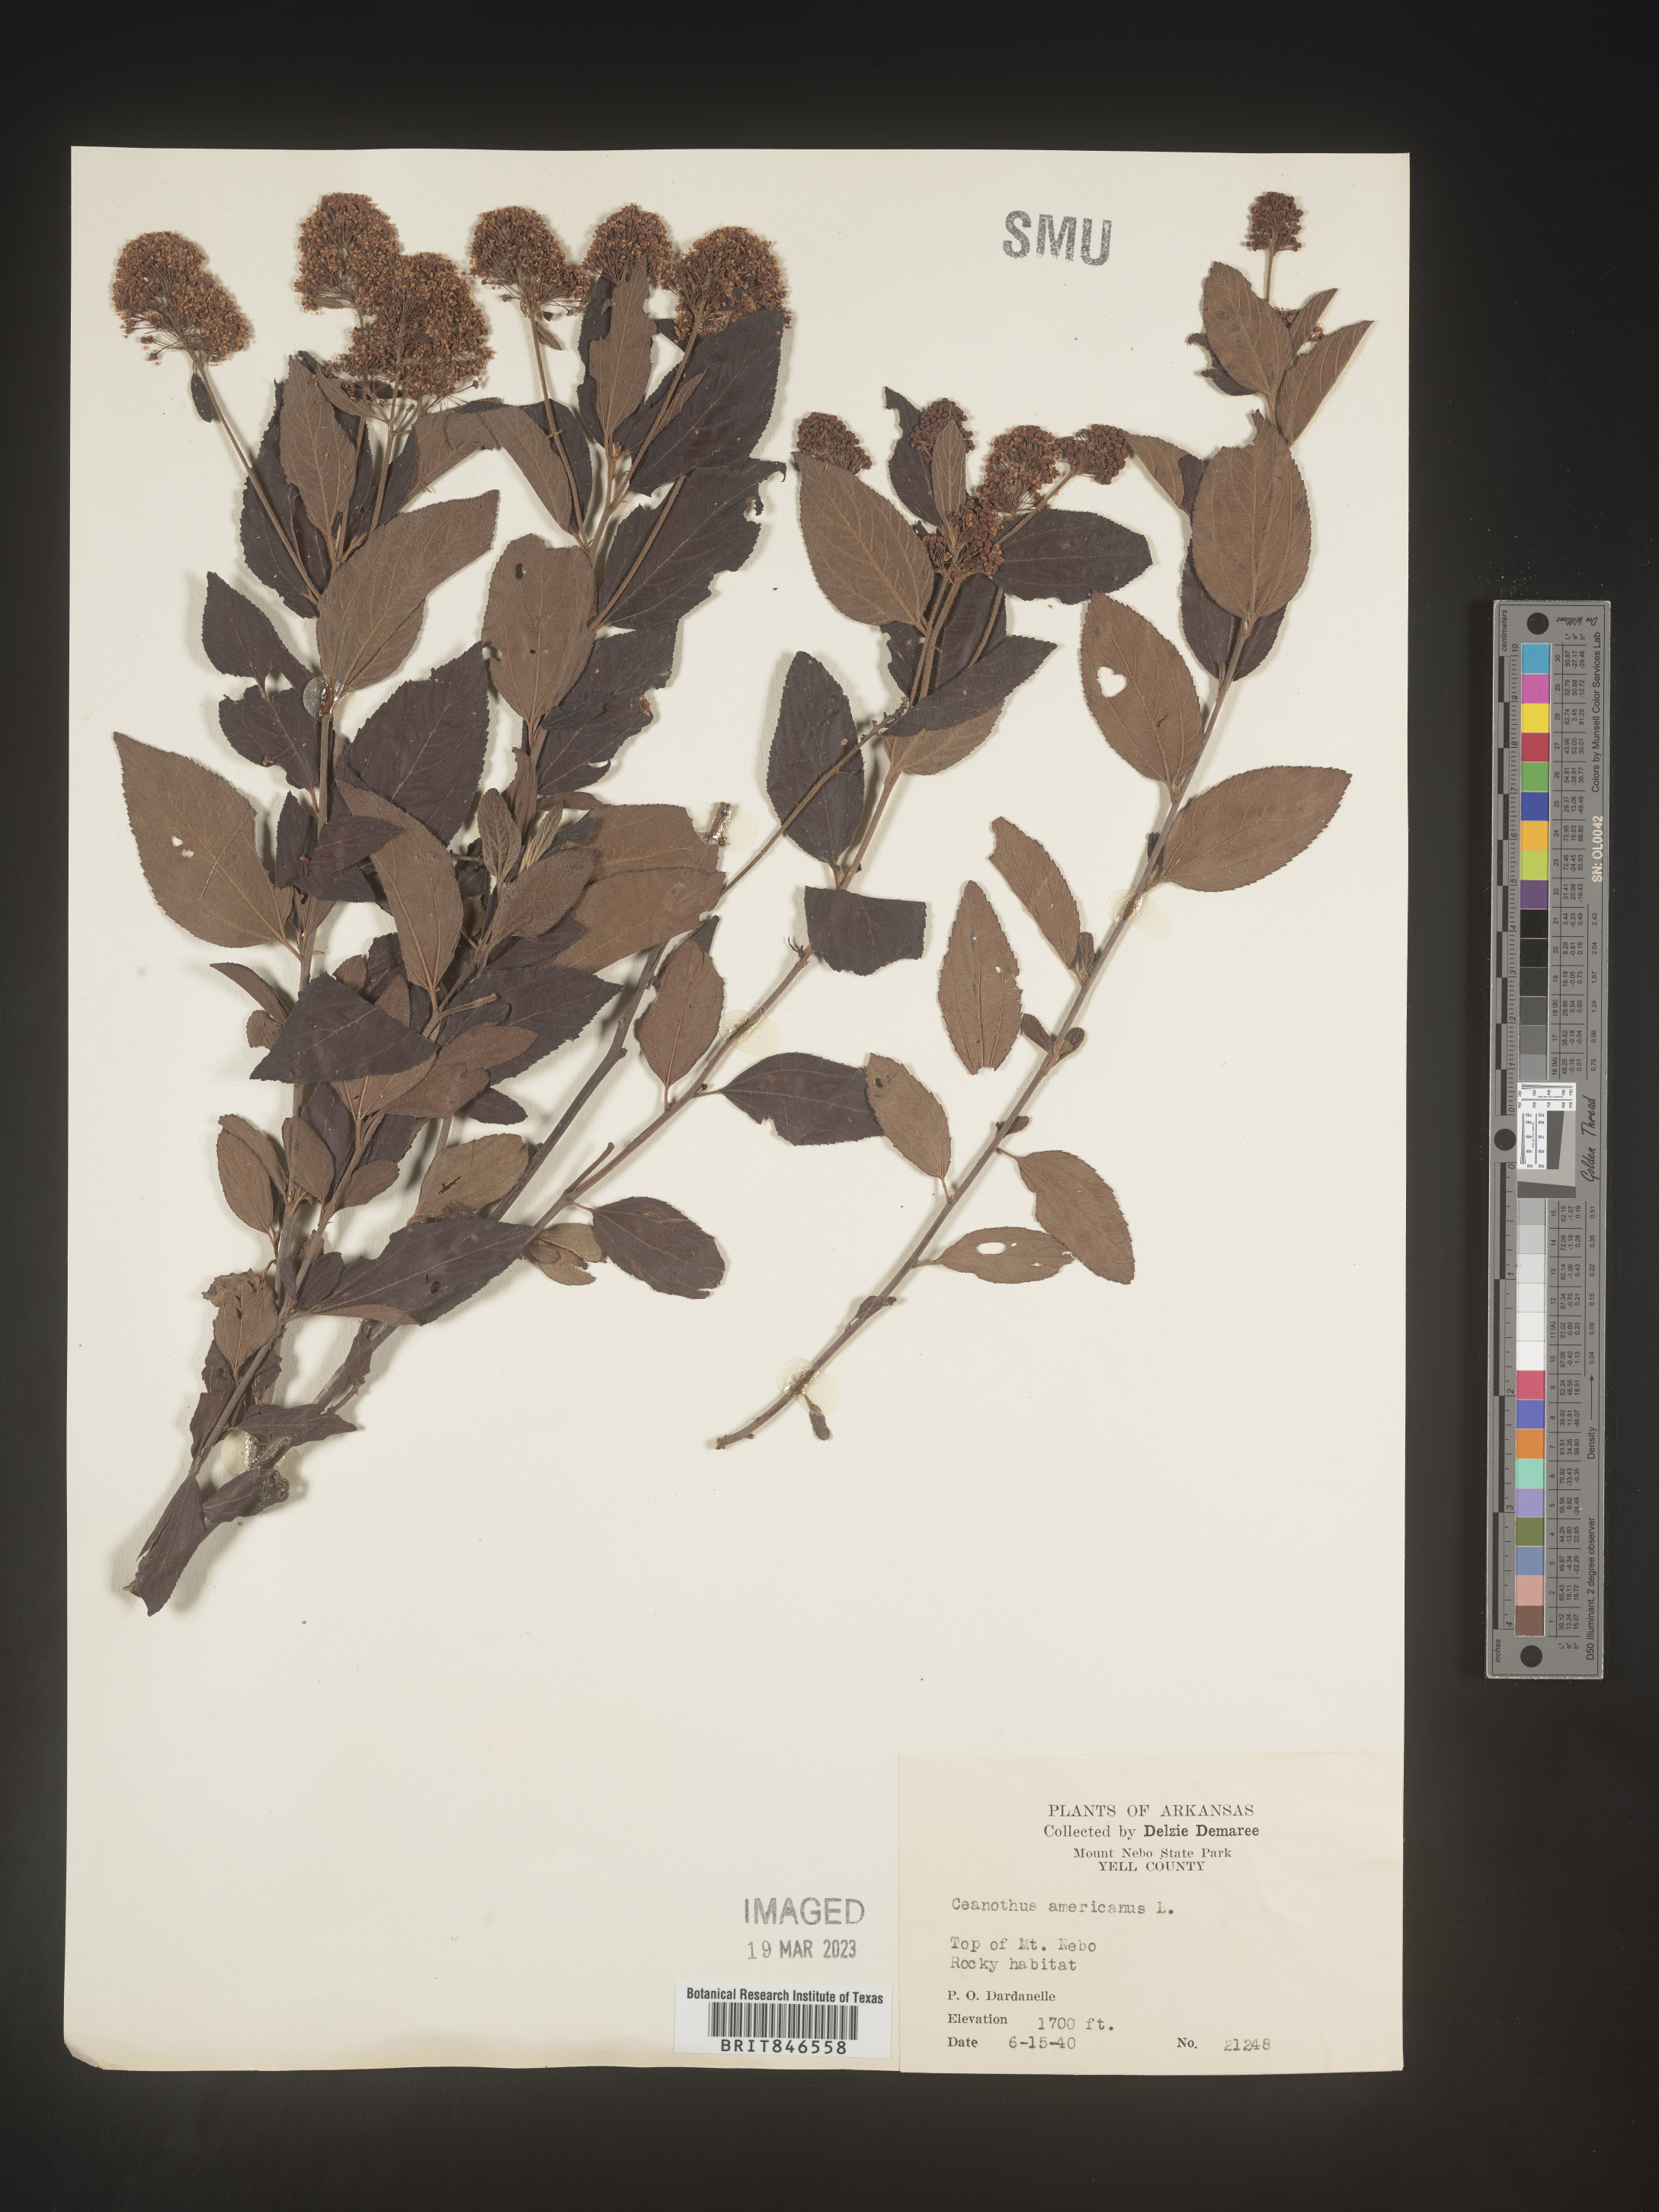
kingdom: Plantae
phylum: Tracheophyta
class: Magnoliopsida
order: Rosales
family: Rhamnaceae
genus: Ceanothus
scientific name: Ceanothus americanus
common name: Redroot
